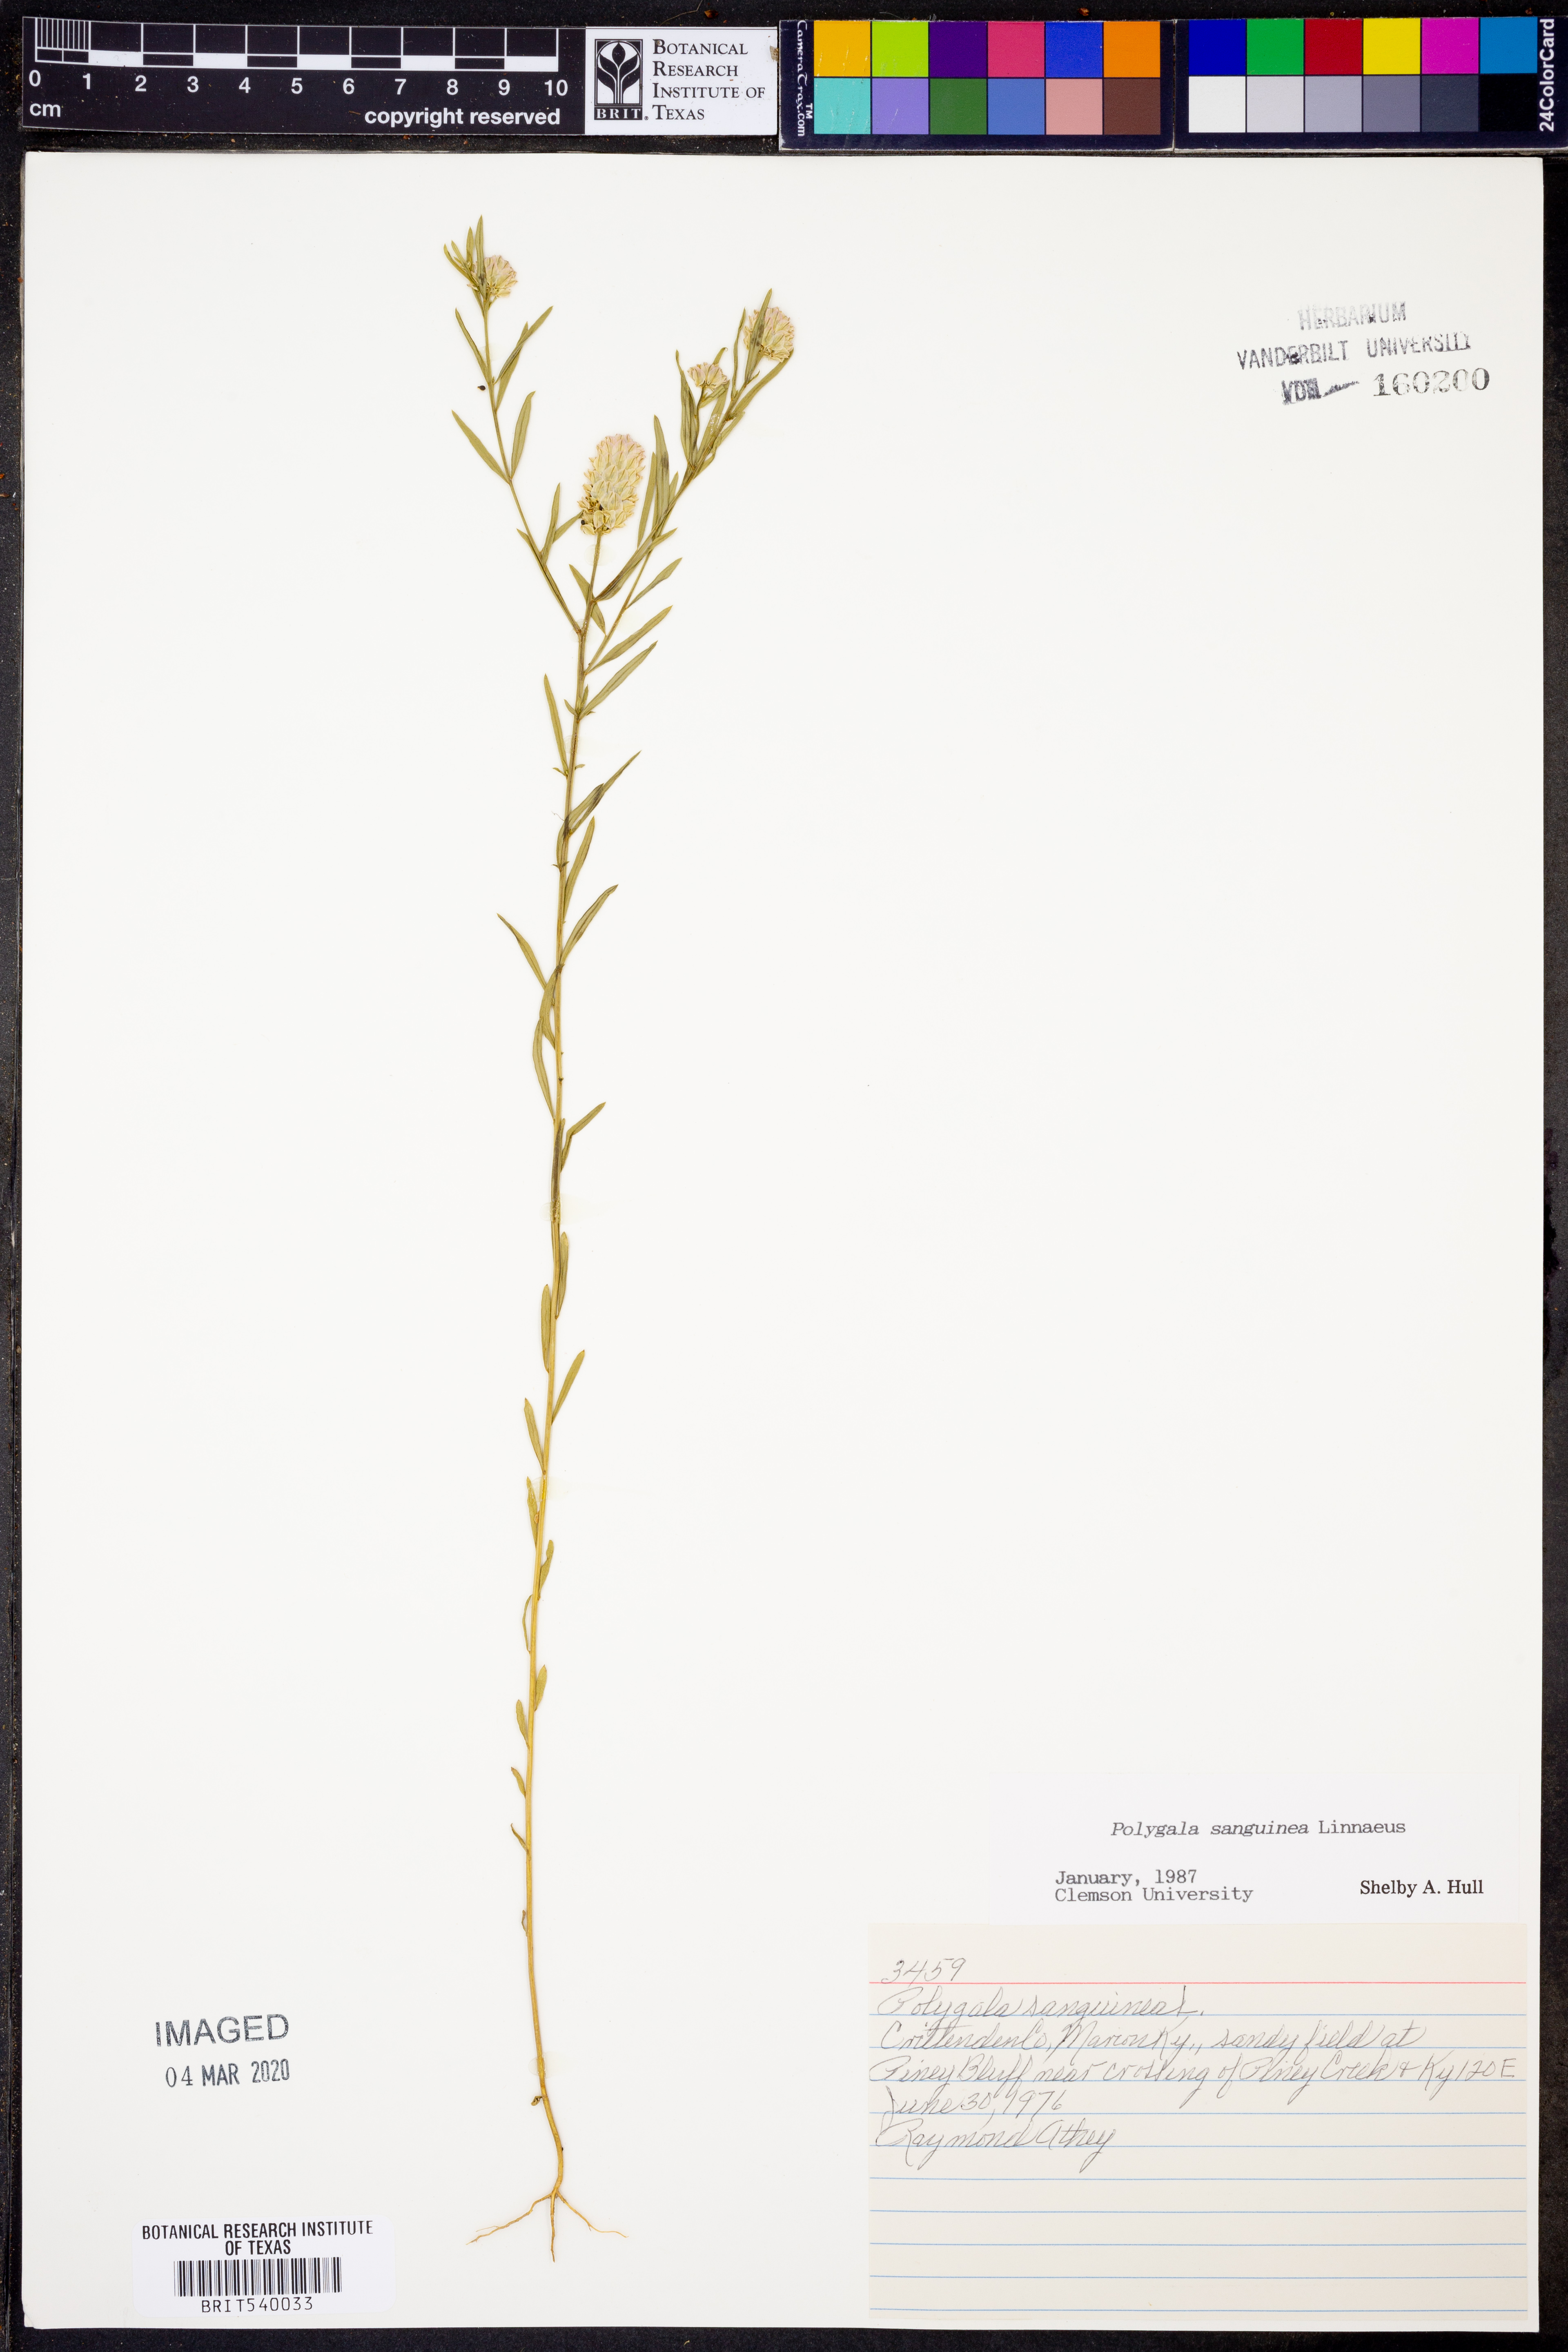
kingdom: Plantae
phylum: Tracheophyta
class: Magnoliopsida
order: Fabales
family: Polygalaceae
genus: Polygala
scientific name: Polygala sanguinea
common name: Blood milkwort
